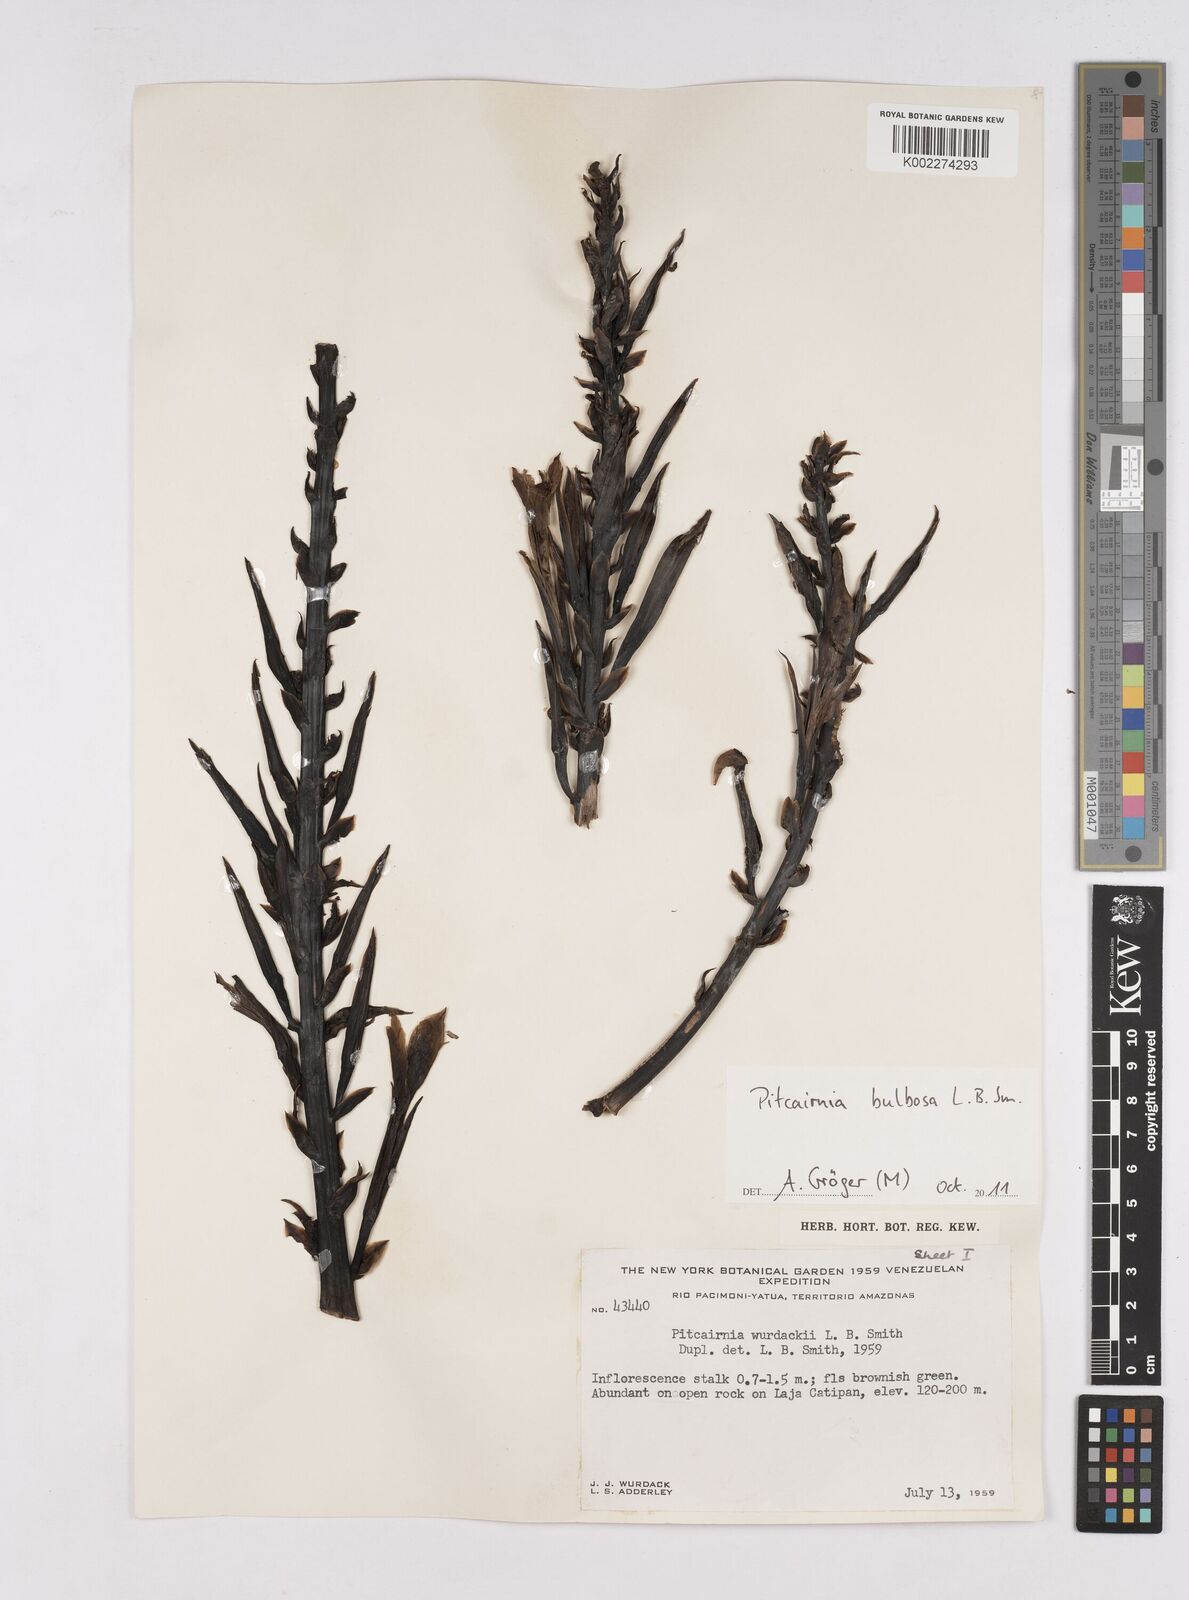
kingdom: Plantae
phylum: Tracheophyta
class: Liliopsida
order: Poales
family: Bromeliaceae
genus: Pitcairnia
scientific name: Pitcairnia bulbosa
